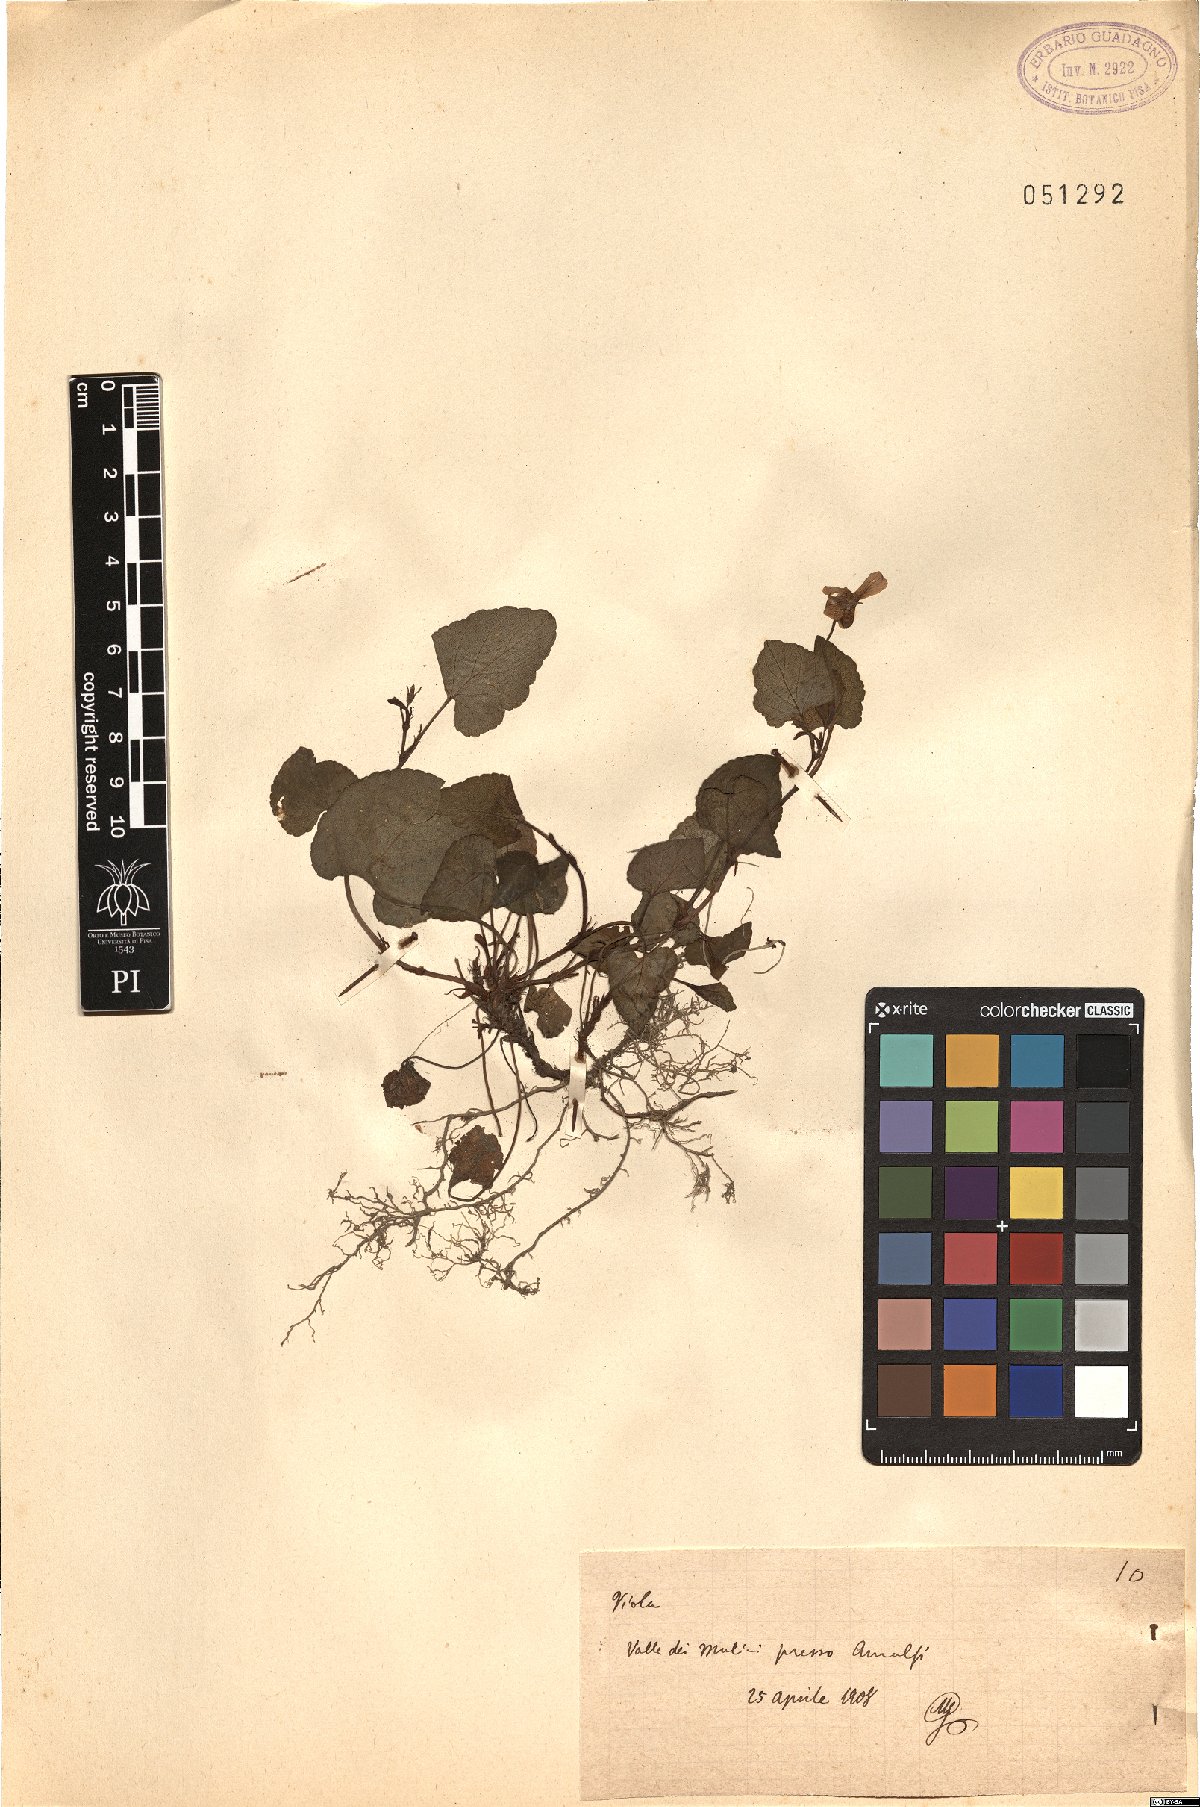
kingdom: Plantae
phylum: Tracheophyta
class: Magnoliopsida
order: Malpighiales
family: Violaceae
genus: Viola
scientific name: Viola
